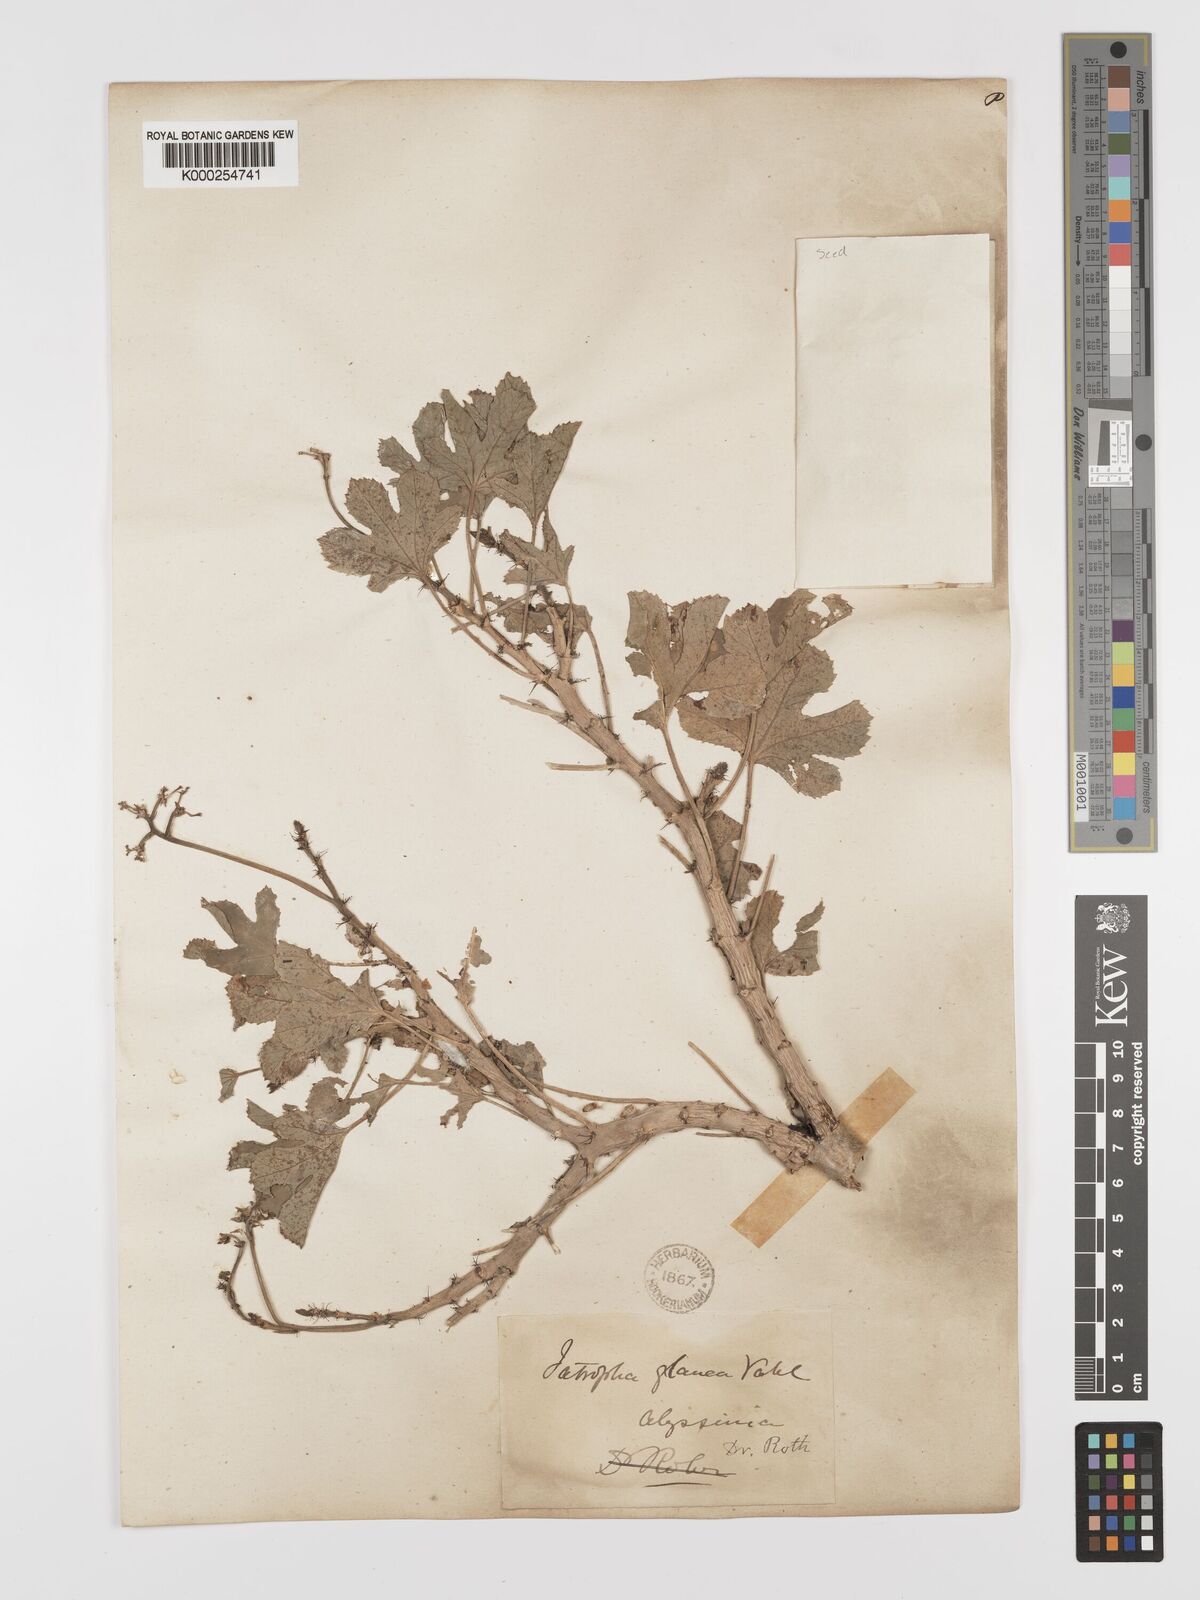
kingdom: Plantae
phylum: Tracheophyta
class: Magnoliopsida
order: Malpighiales
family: Euphorbiaceae
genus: Jatropha
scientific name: Jatropha glauca
